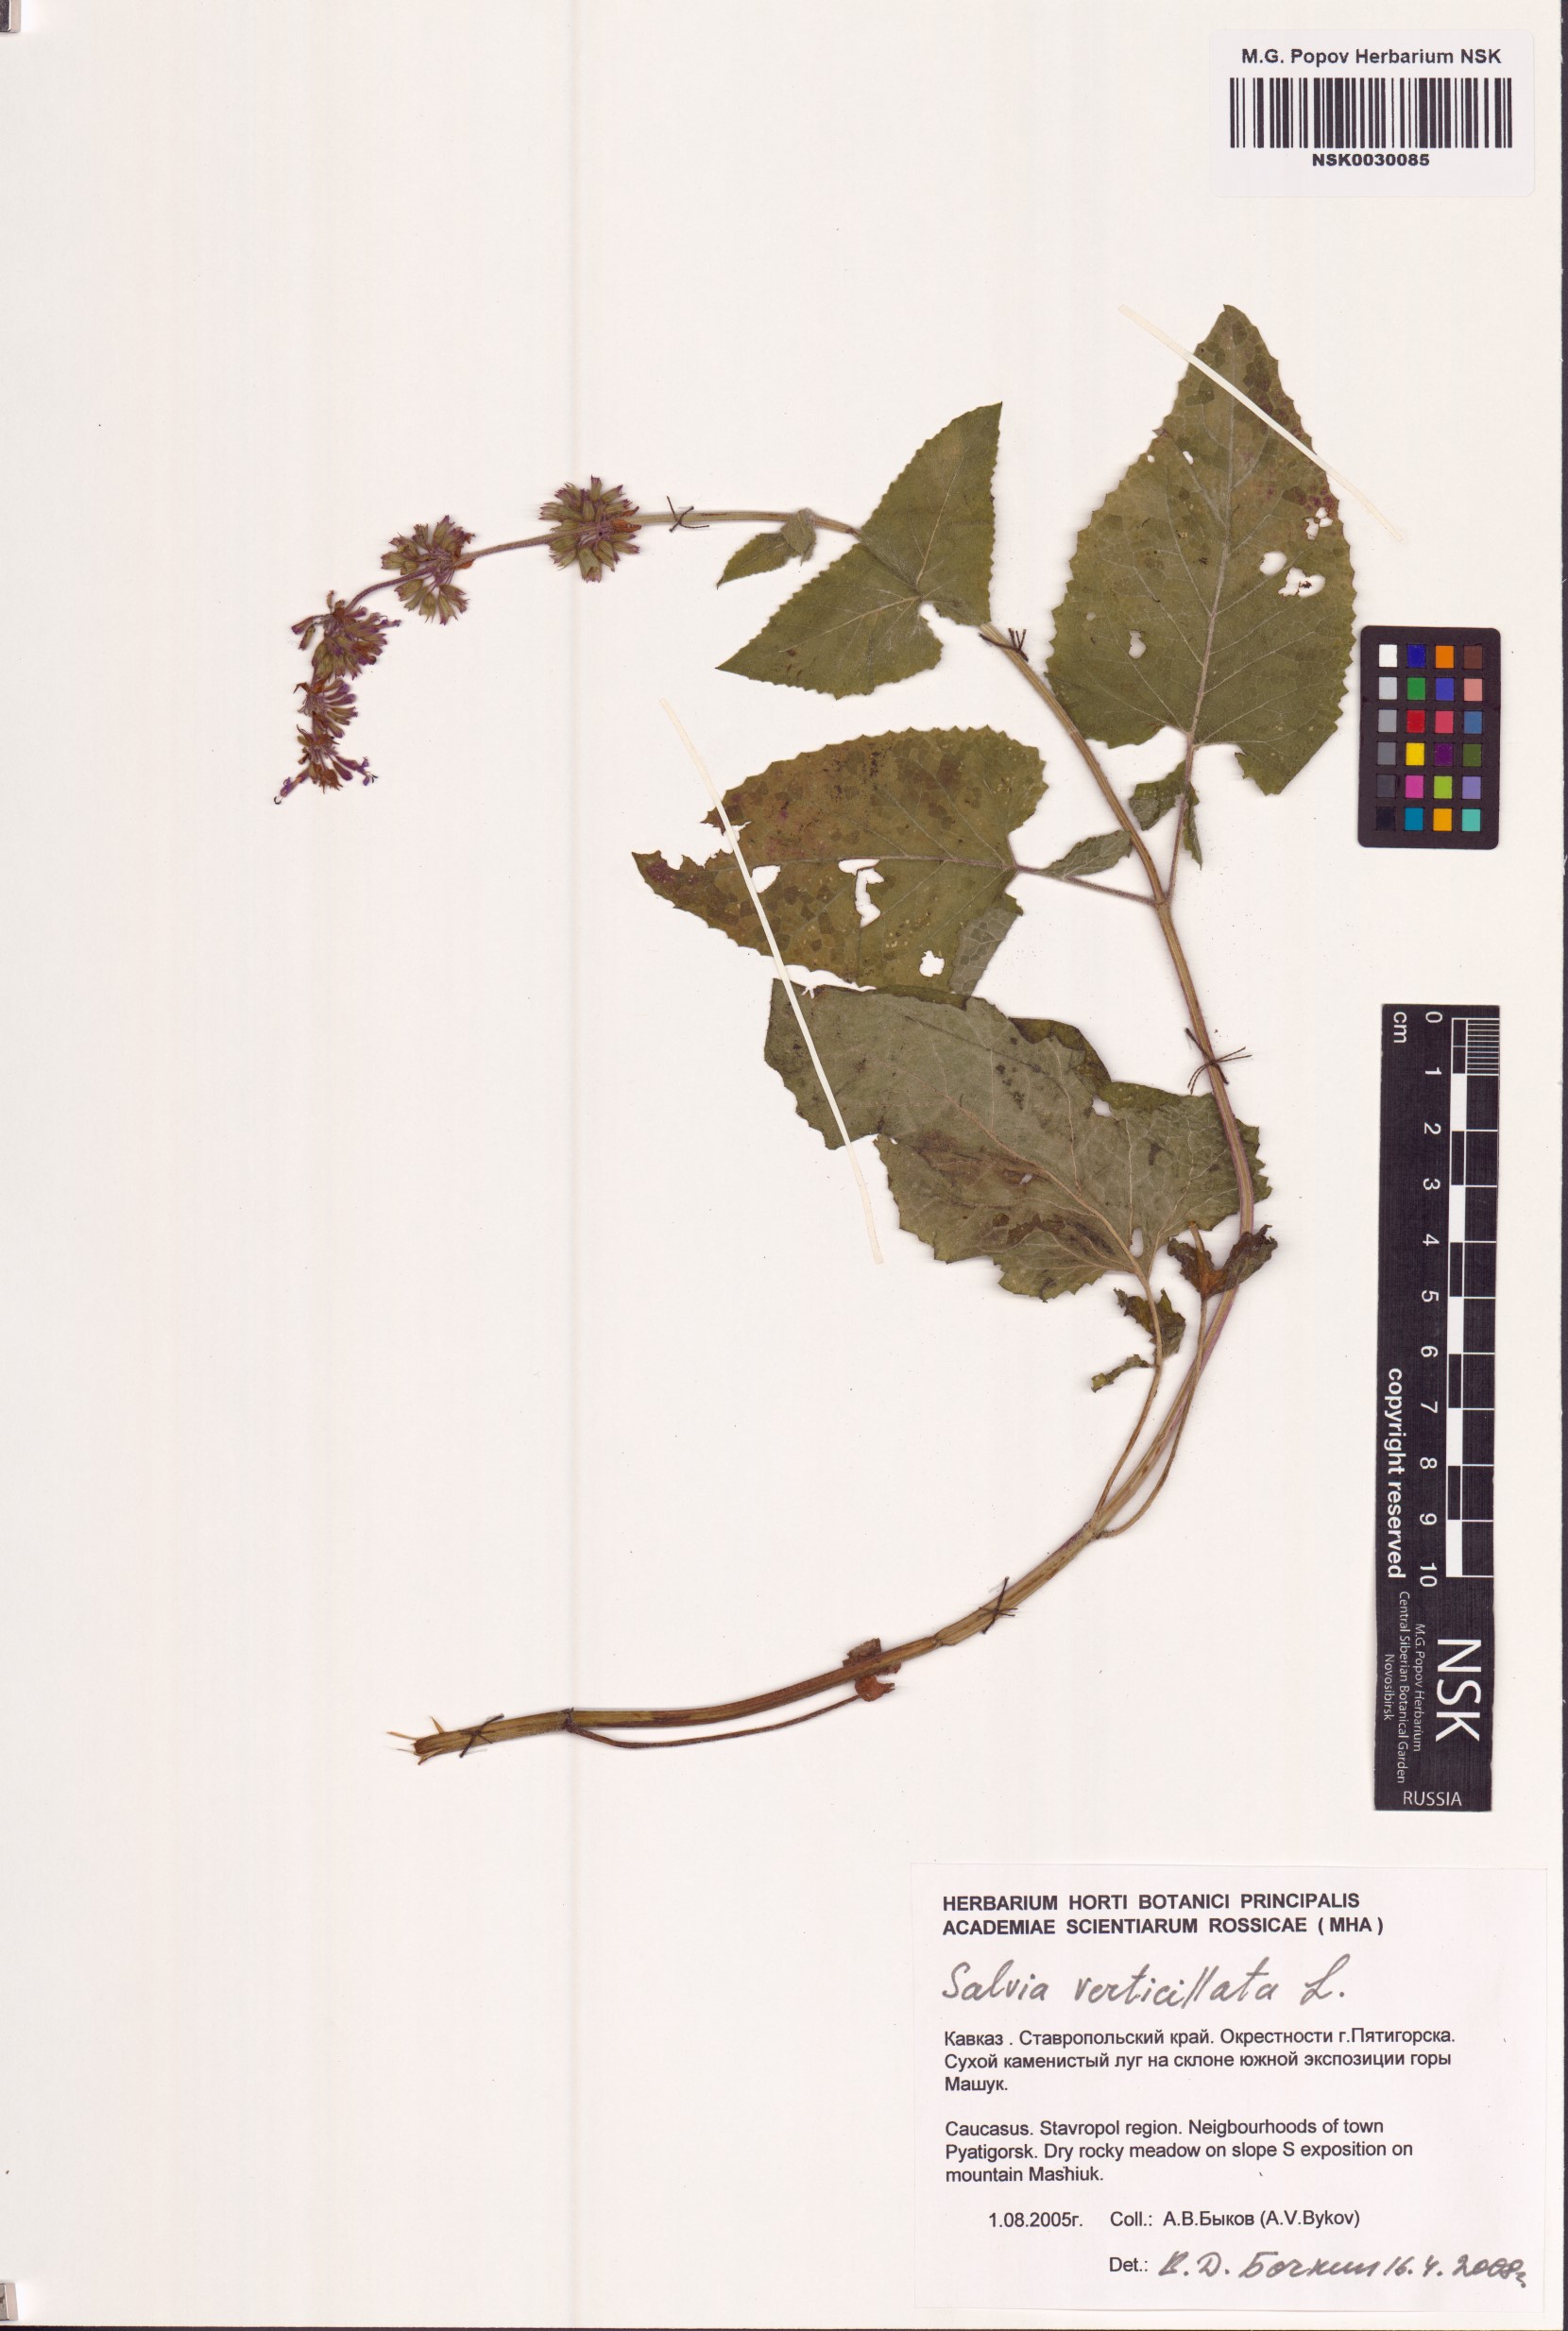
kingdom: Plantae
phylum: Tracheophyta
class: Magnoliopsida
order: Lamiales
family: Lamiaceae
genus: Salvia
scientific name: Salvia verticillata
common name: Whorled clary
